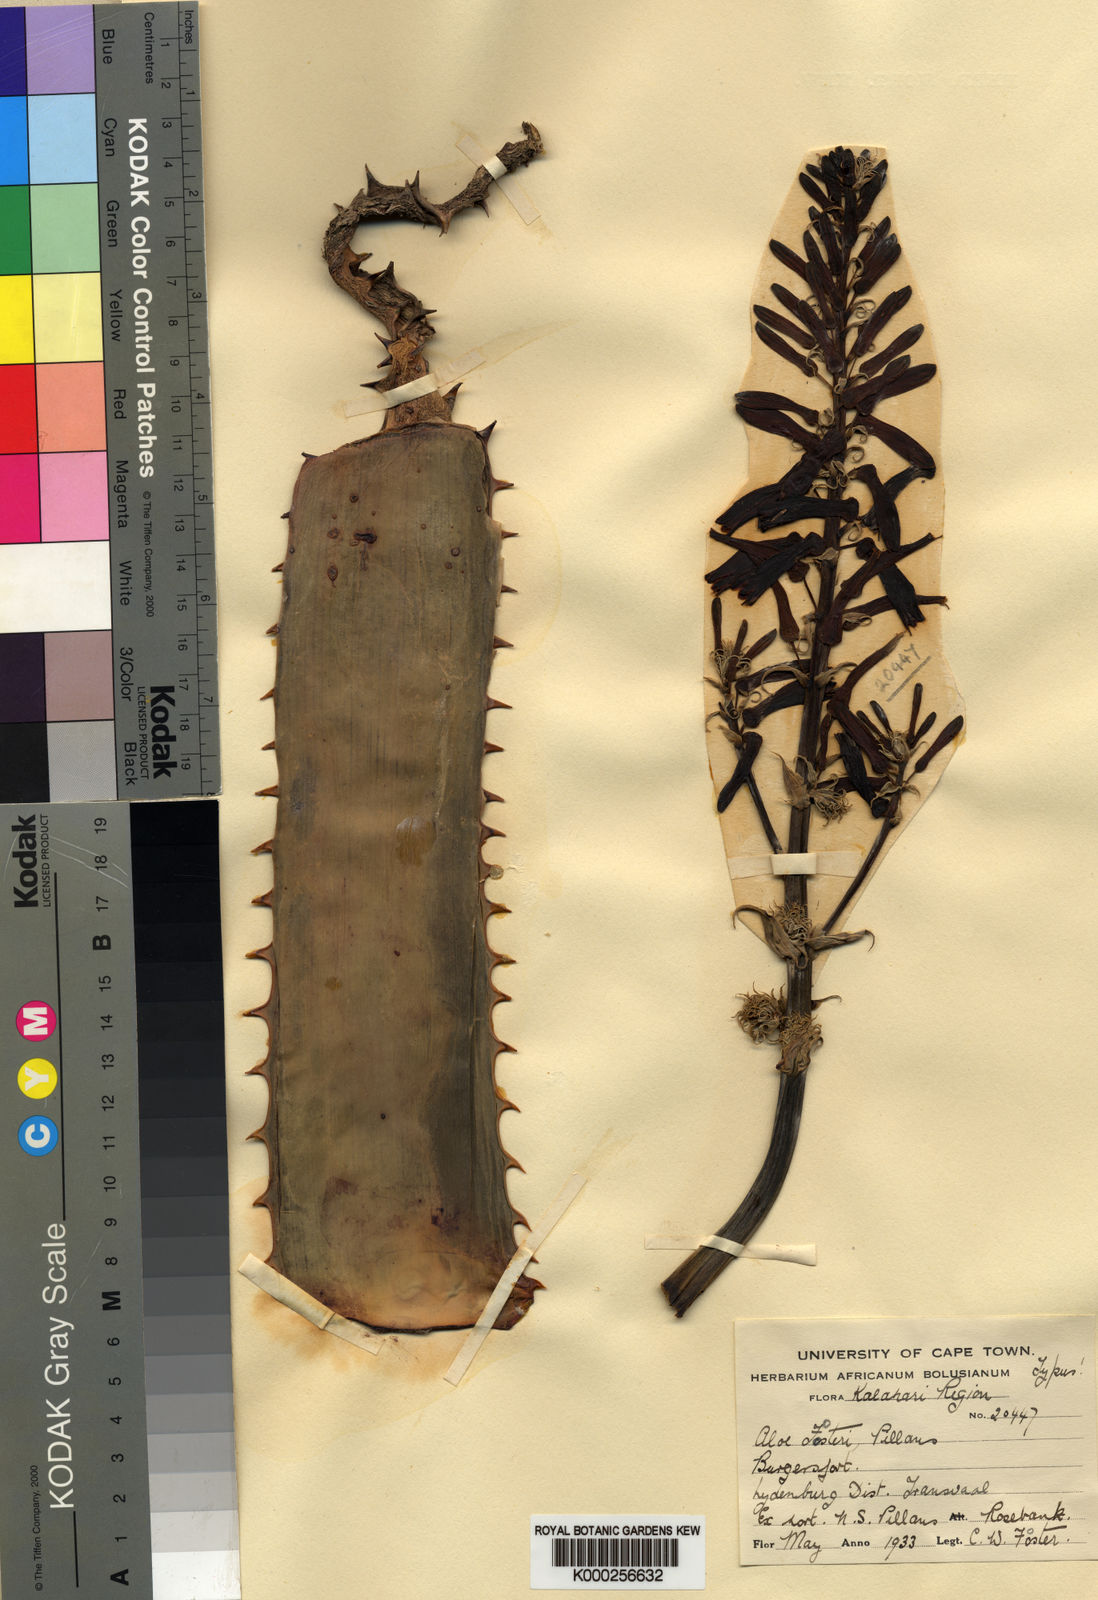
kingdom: Plantae
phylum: Tracheophyta
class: Liliopsida
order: Asparagales
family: Asphodelaceae
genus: Aloe
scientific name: Aloe fosteri
